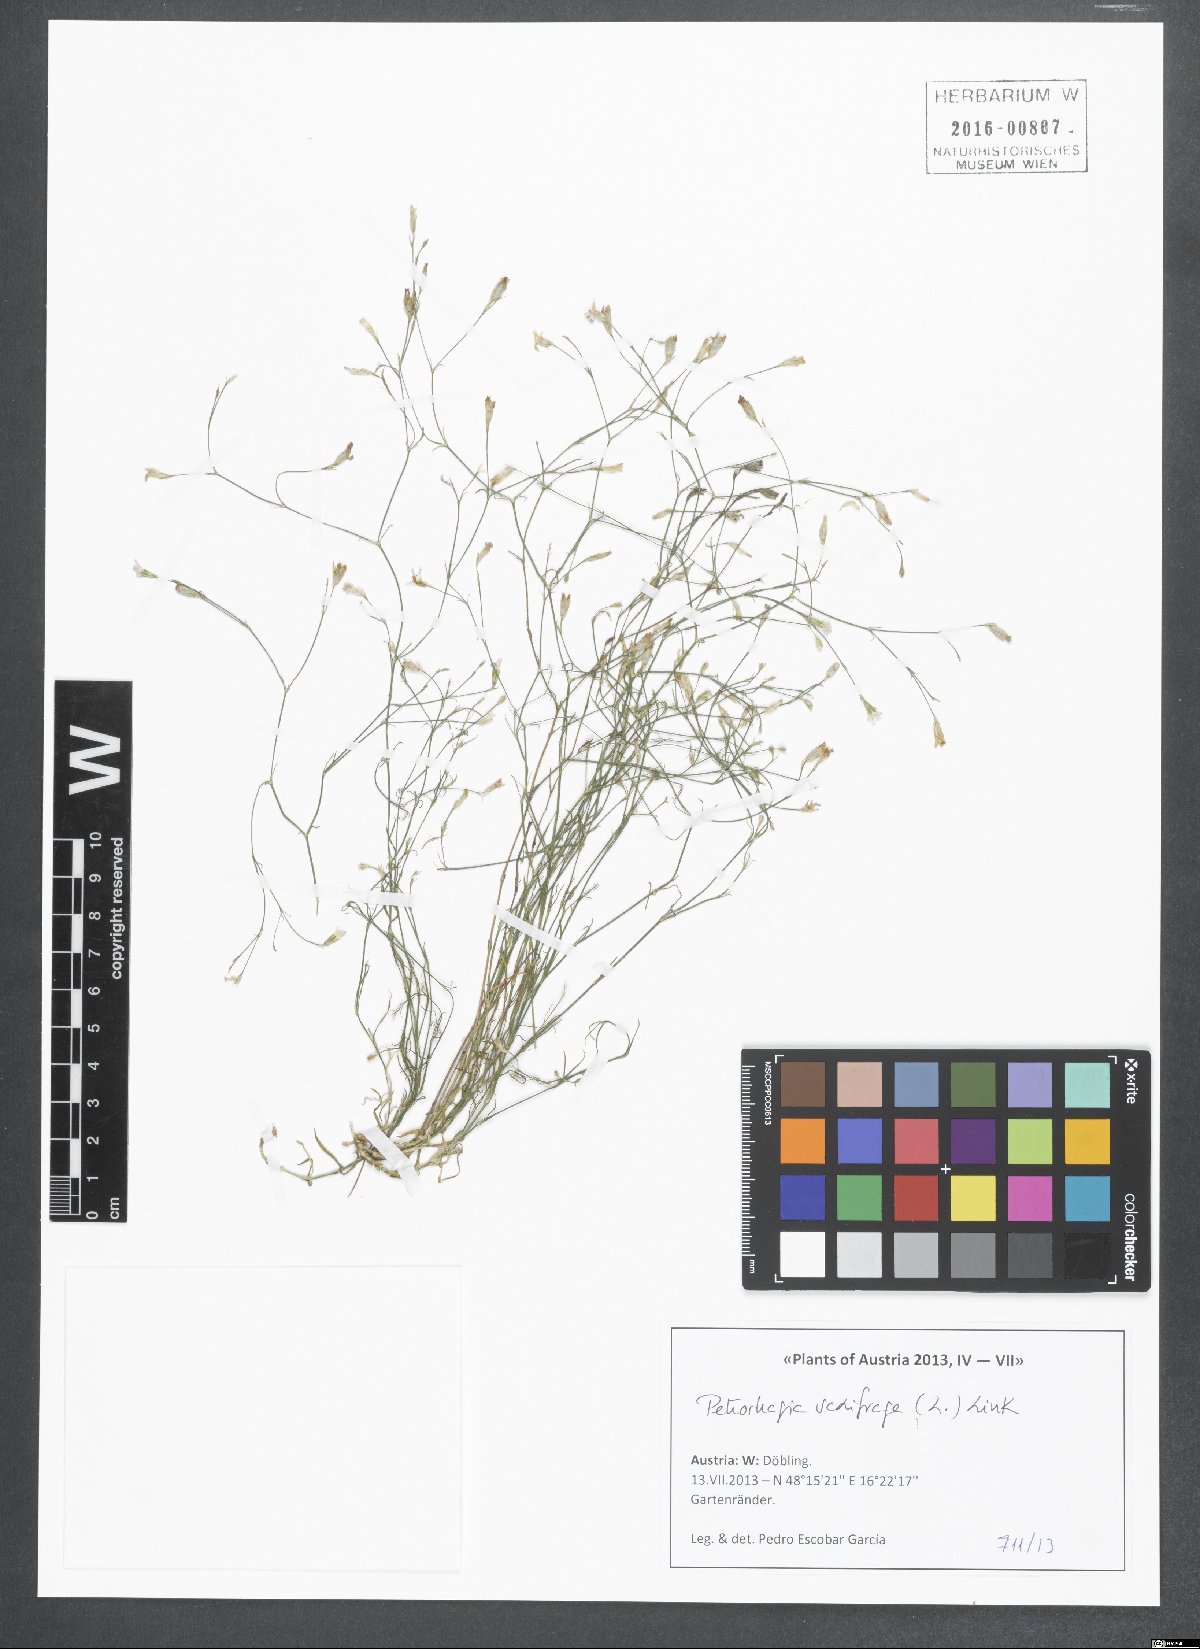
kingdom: Plantae
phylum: Tracheophyta
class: Magnoliopsida
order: Caryophyllales
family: Caryophyllaceae
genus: Petrorhagia
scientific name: Petrorhagia saxifraga
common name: Tunicflower
